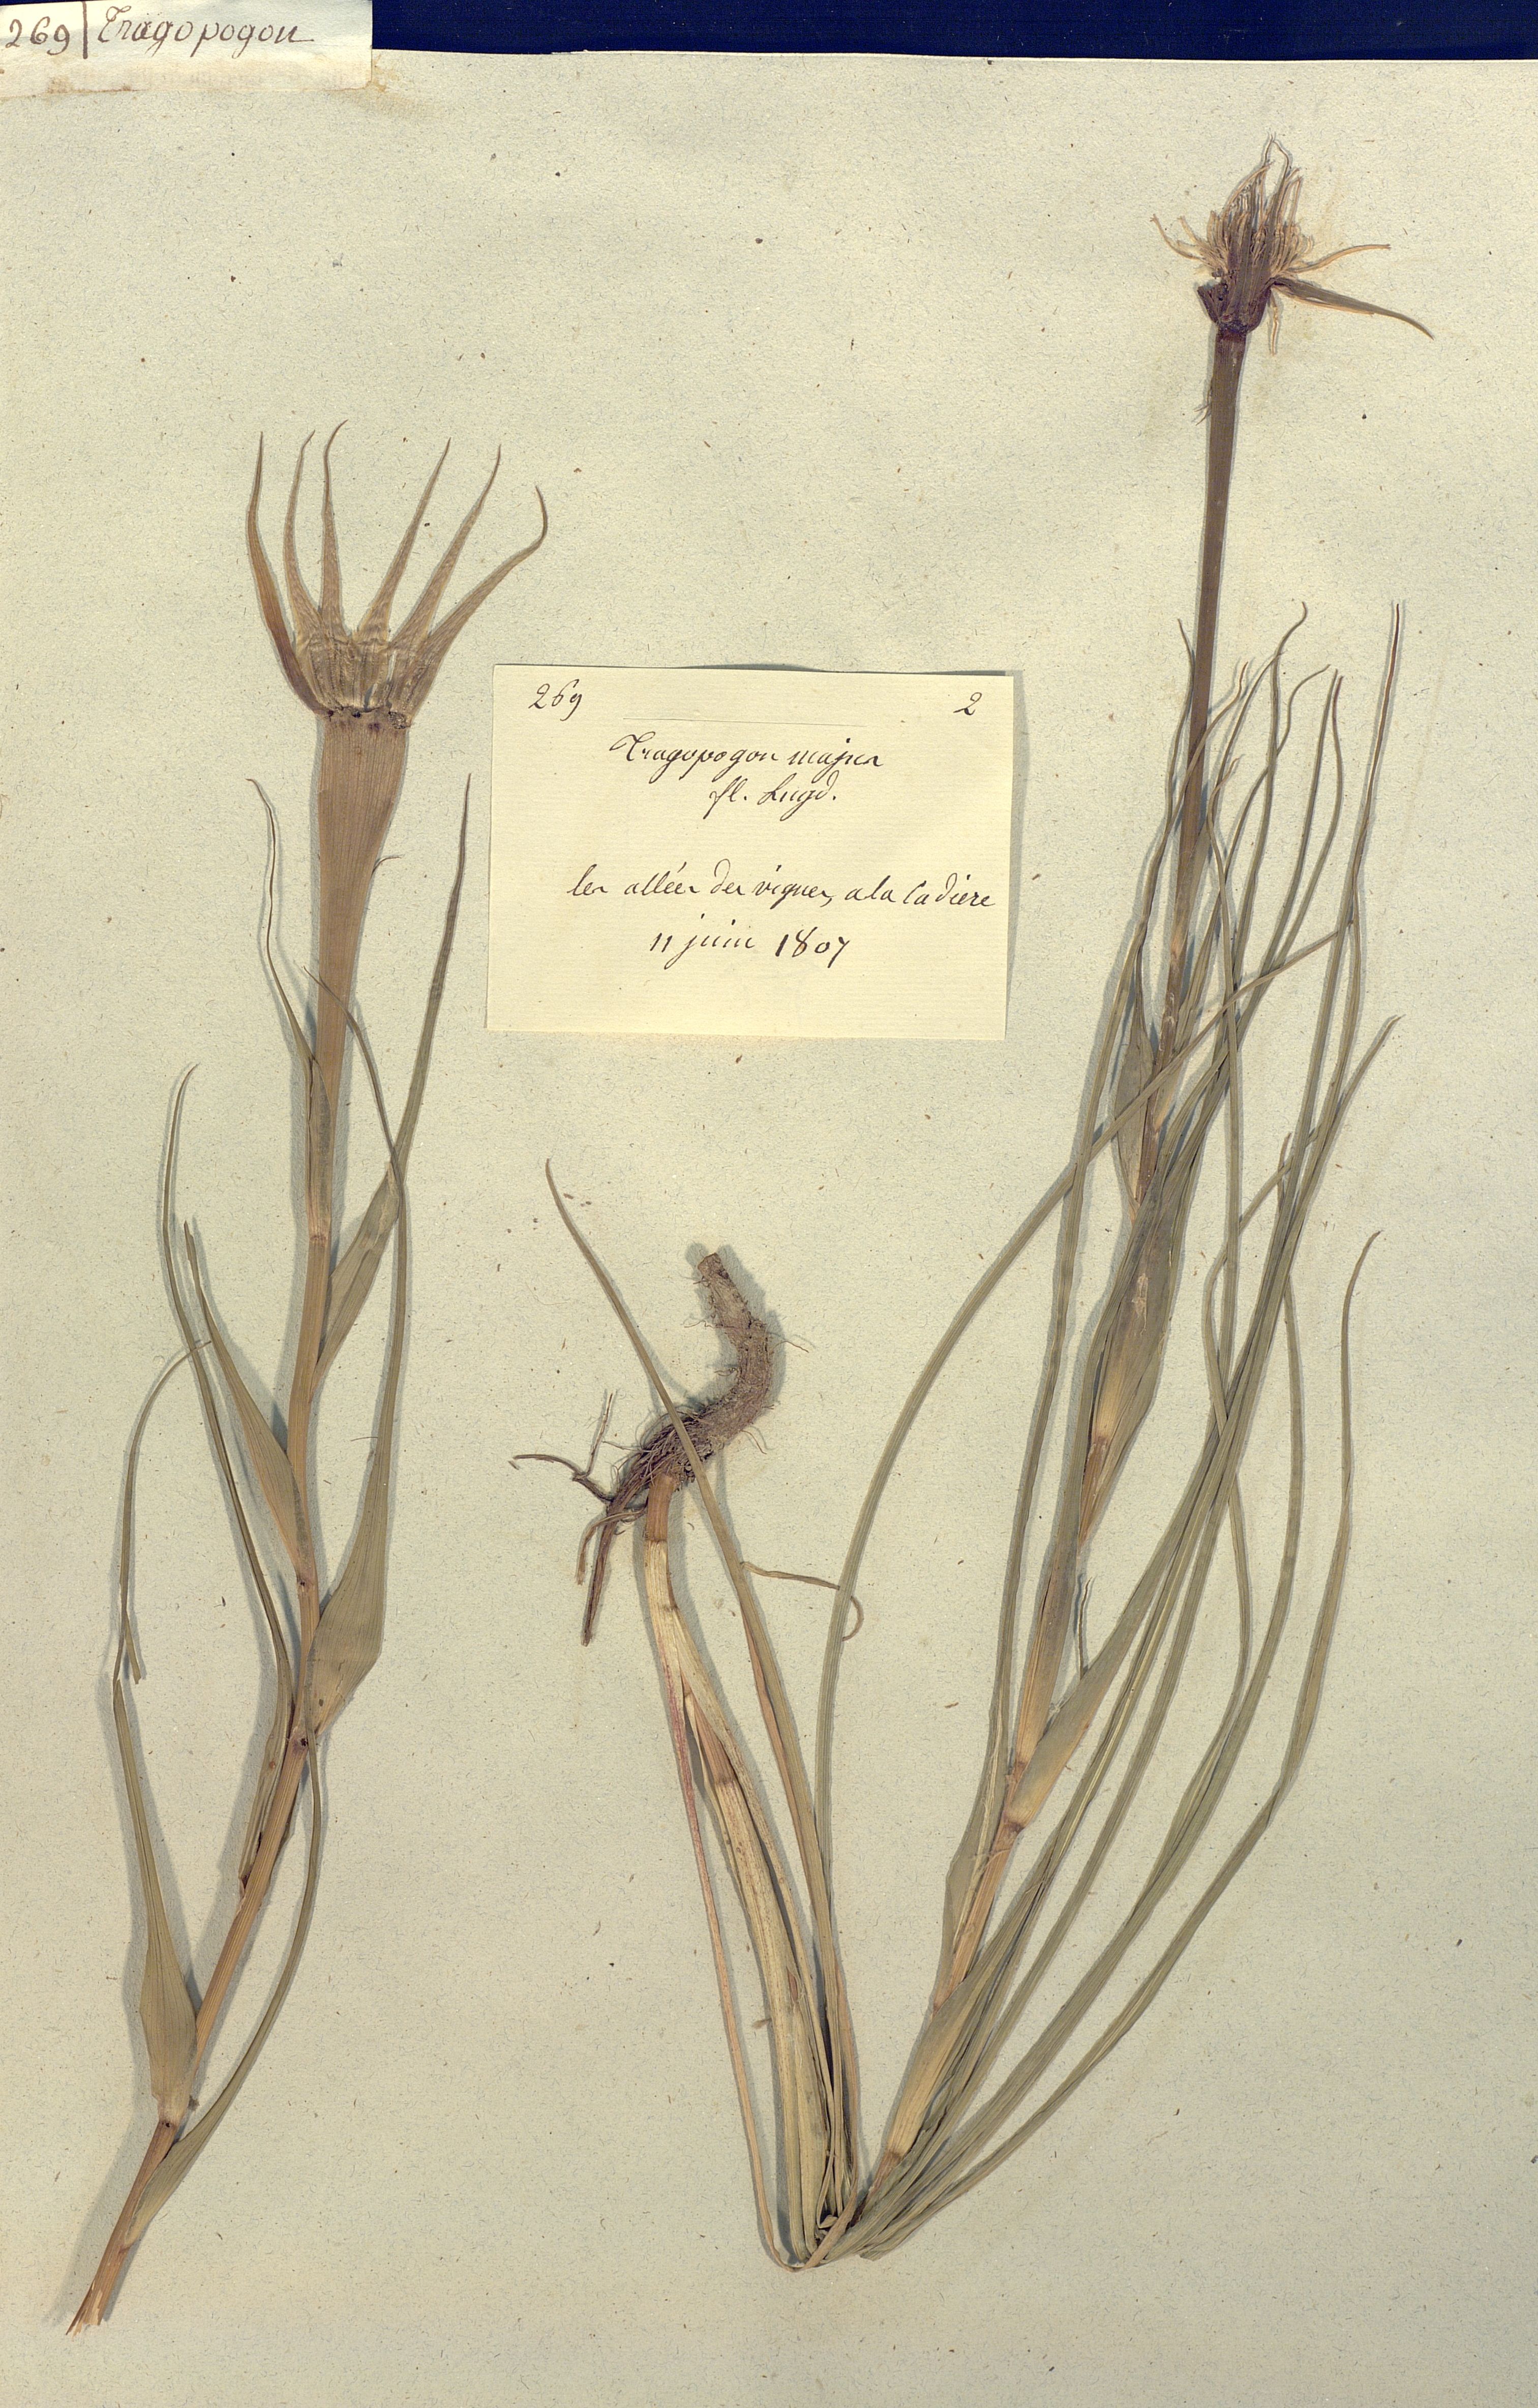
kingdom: Plantae
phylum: Tracheophyta
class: Magnoliopsida
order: Asterales
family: Asteraceae
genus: Tragopogon
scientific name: Tragopogon dubius
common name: Yellow salsify
